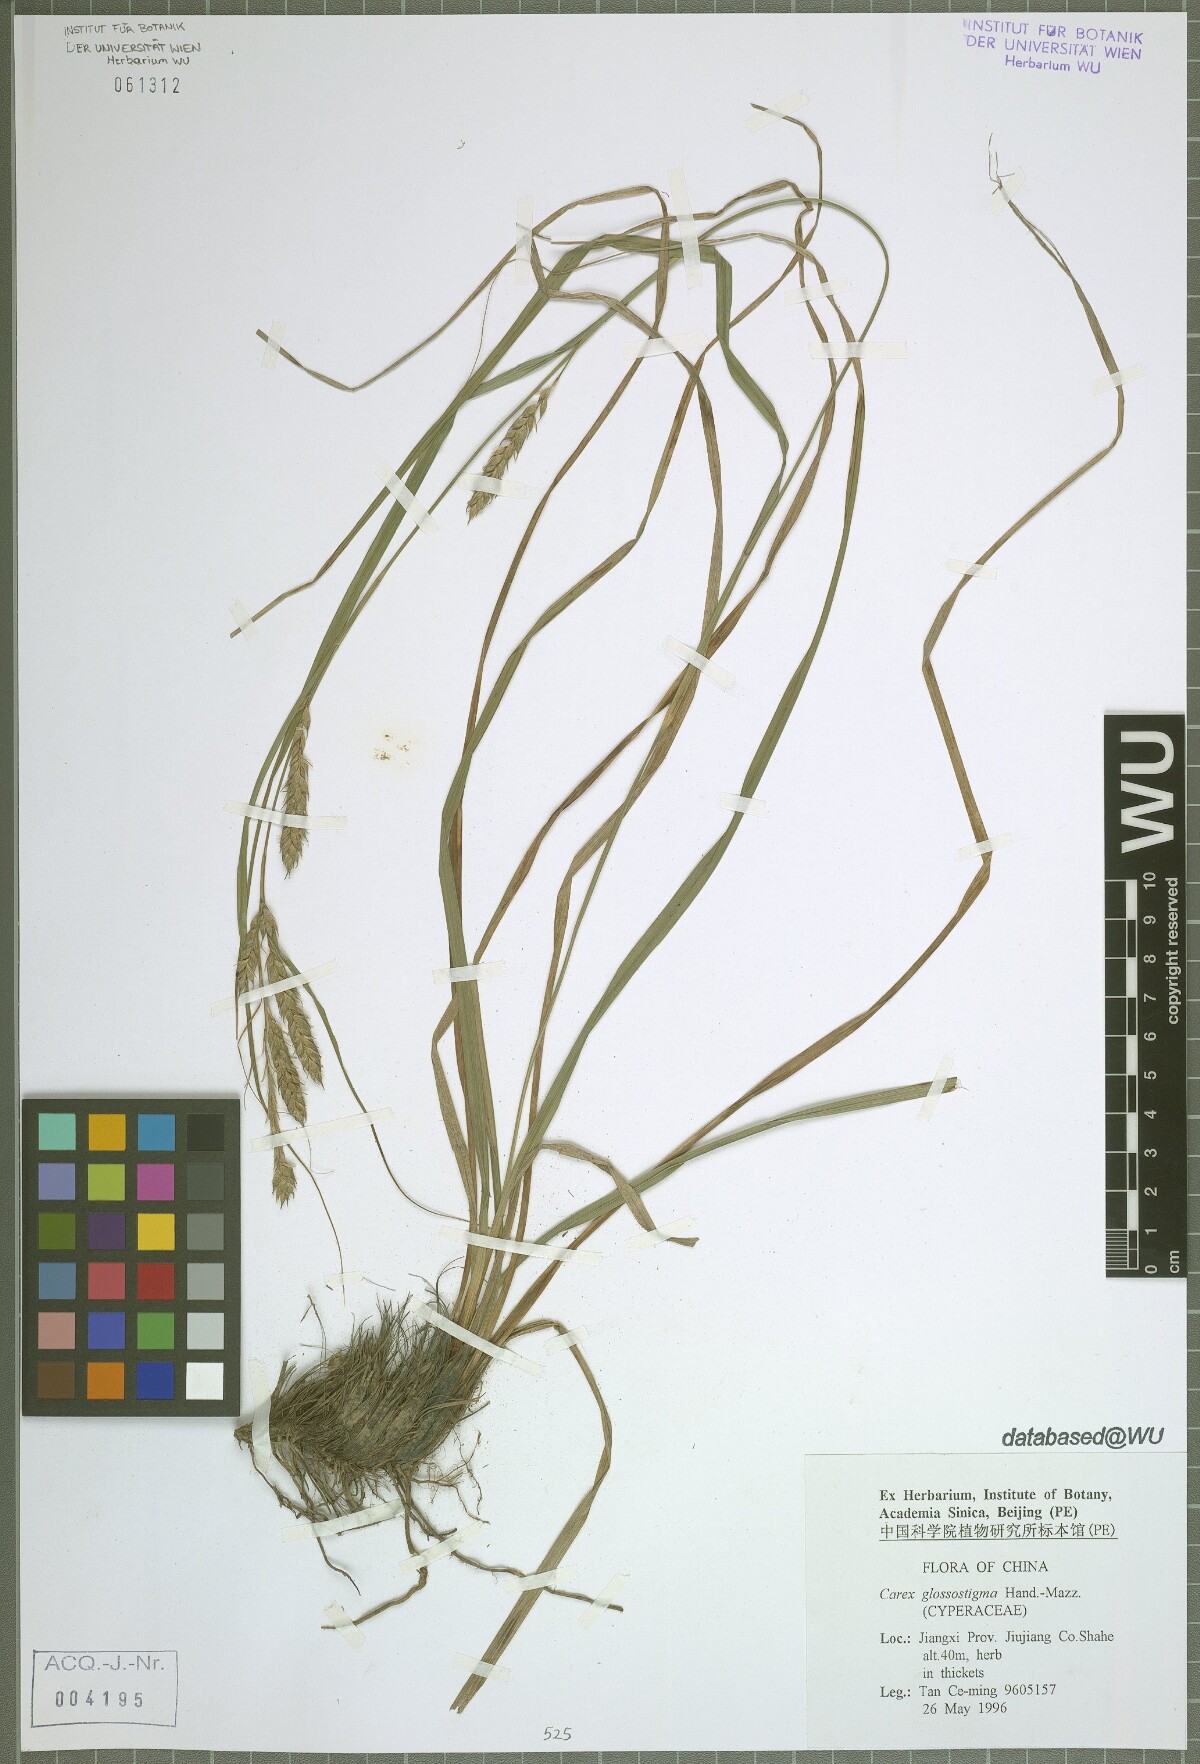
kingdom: Plantae
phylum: Tracheophyta
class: Liliopsida
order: Poales
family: Cyperaceae
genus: Carex
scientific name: Carex glossostigma
